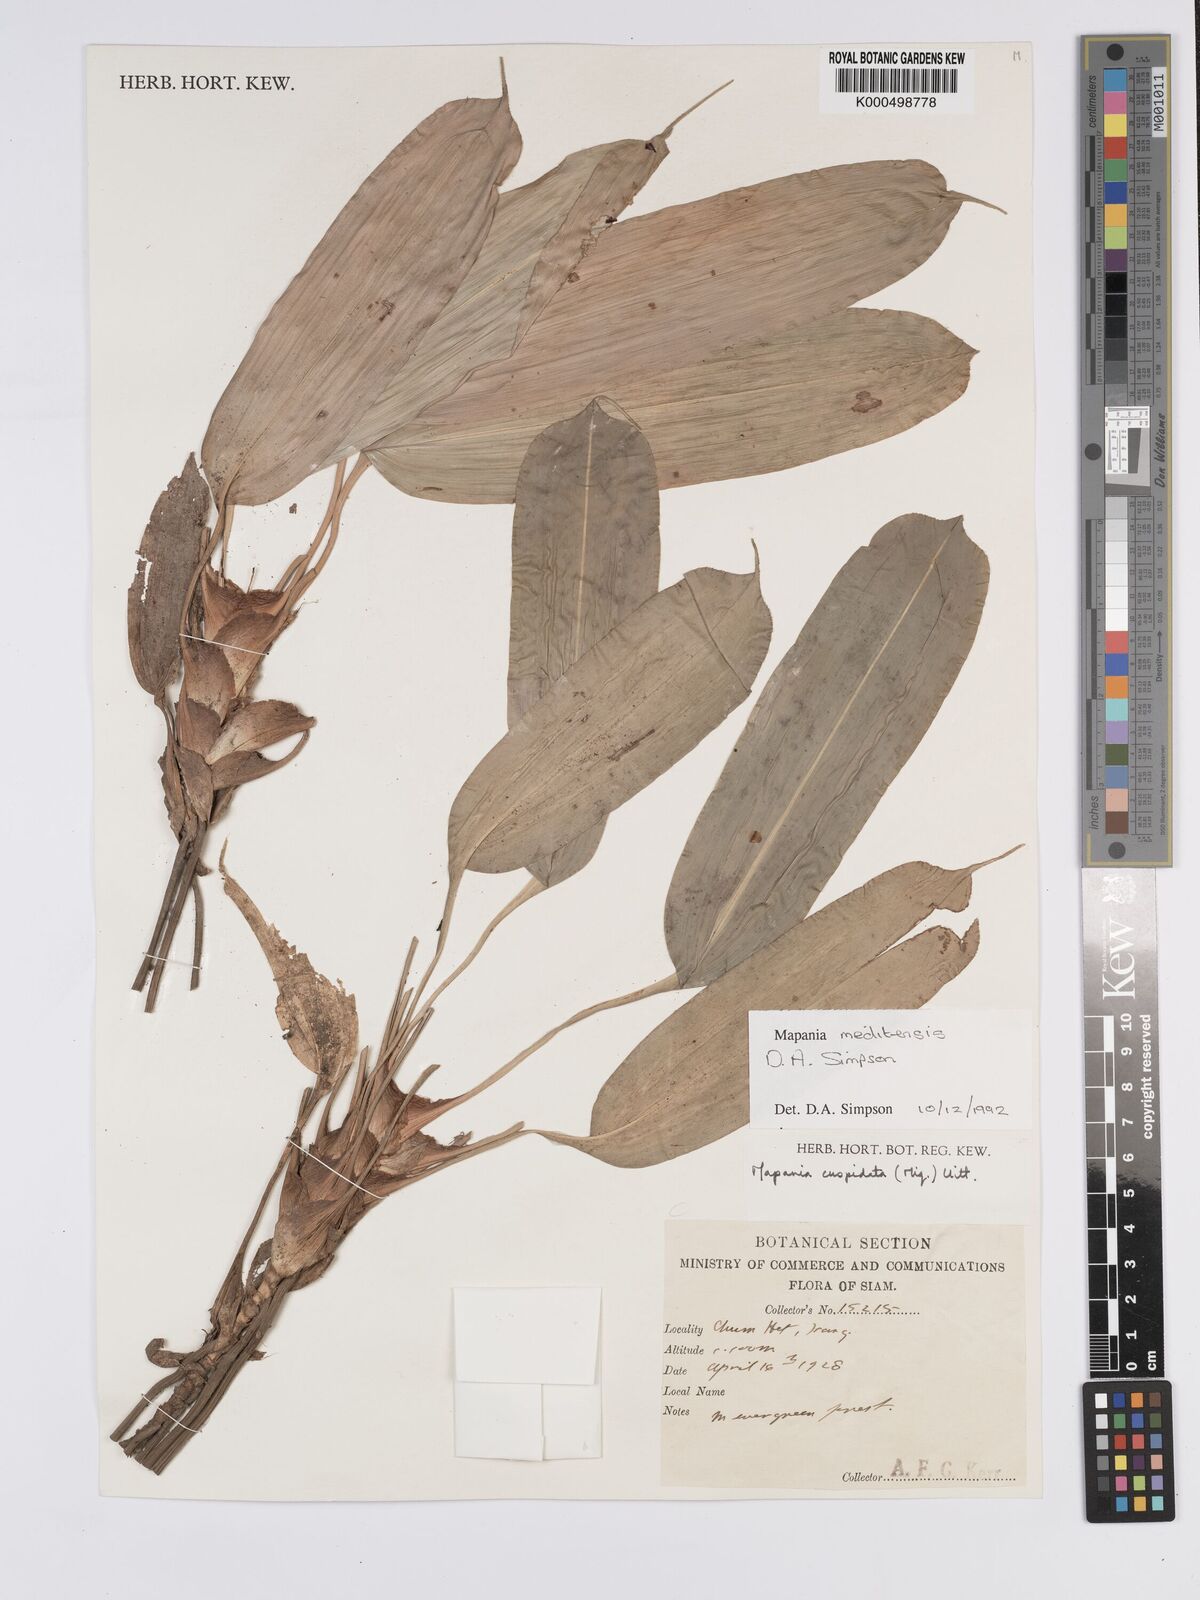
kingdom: Plantae
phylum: Tracheophyta
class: Liliopsida
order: Poales
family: Cyperaceae
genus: Mapania
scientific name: Mapania meditensis
